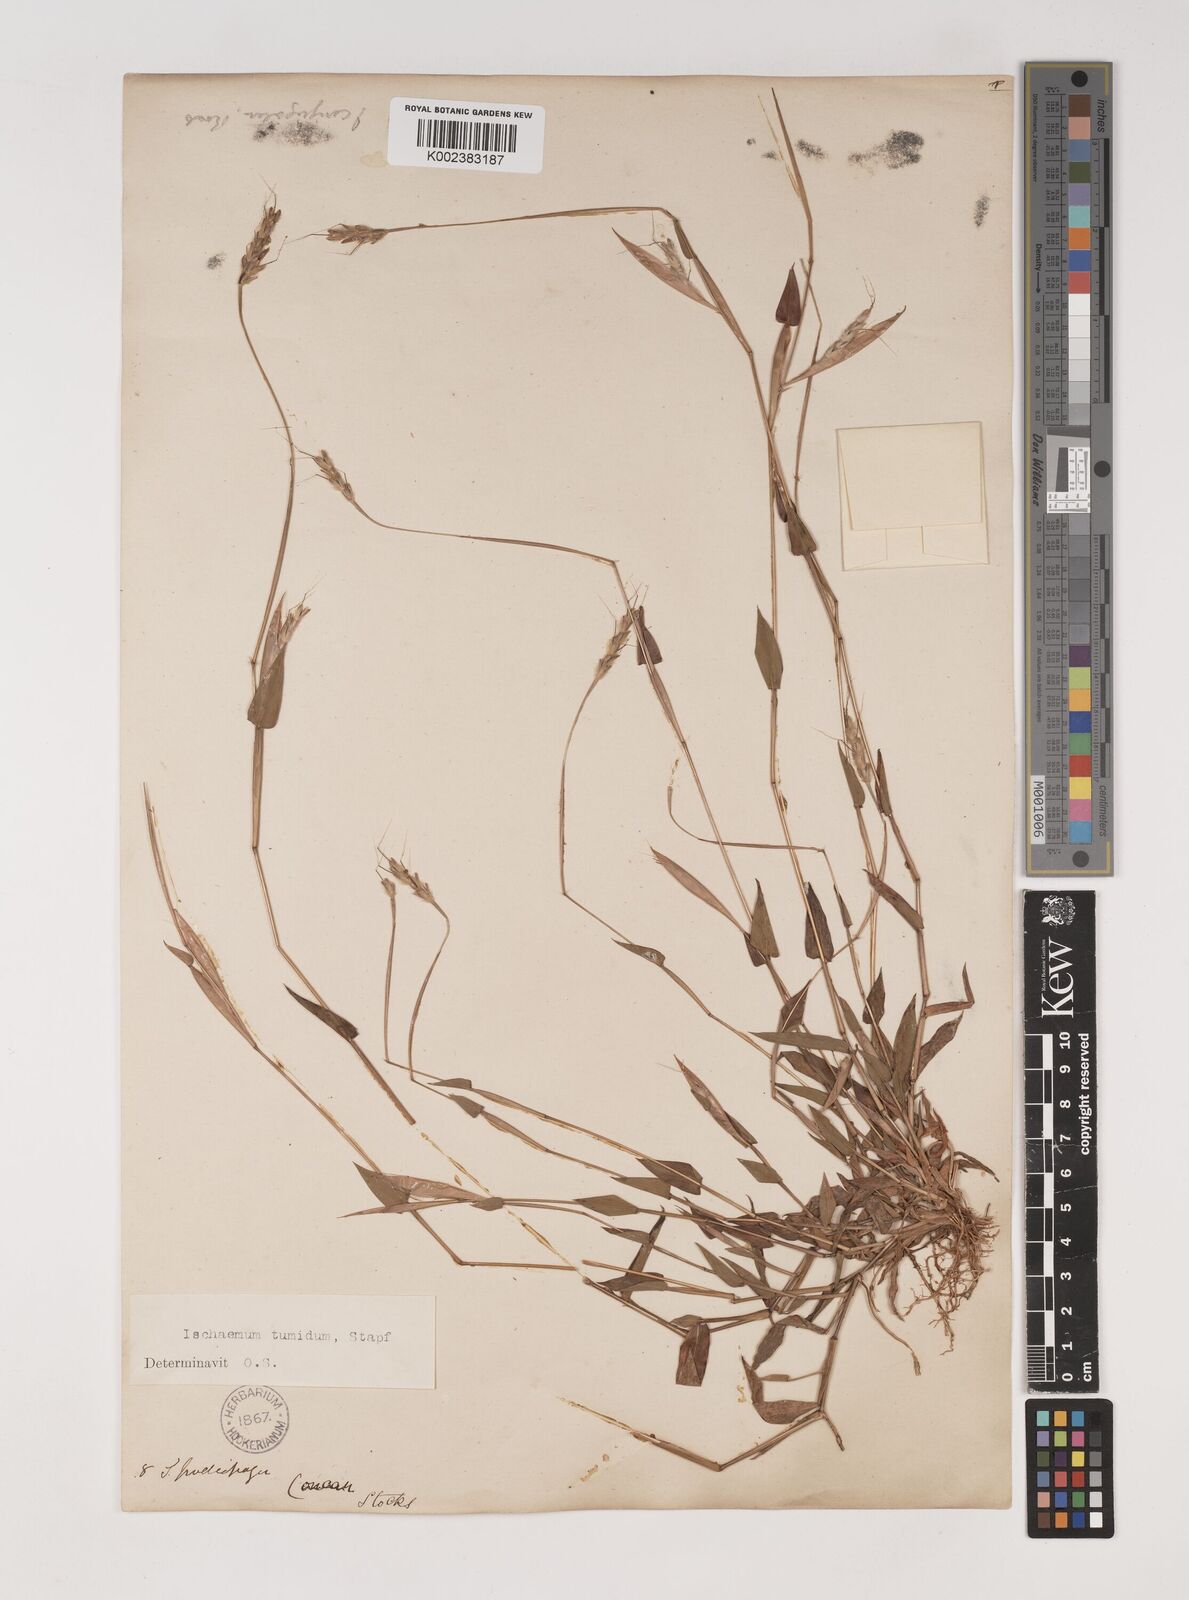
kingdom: Plantae
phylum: Tracheophyta
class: Liliopsida
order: Poales
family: Poaceae
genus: Ischaemum
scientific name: Ischaemum tumidum
